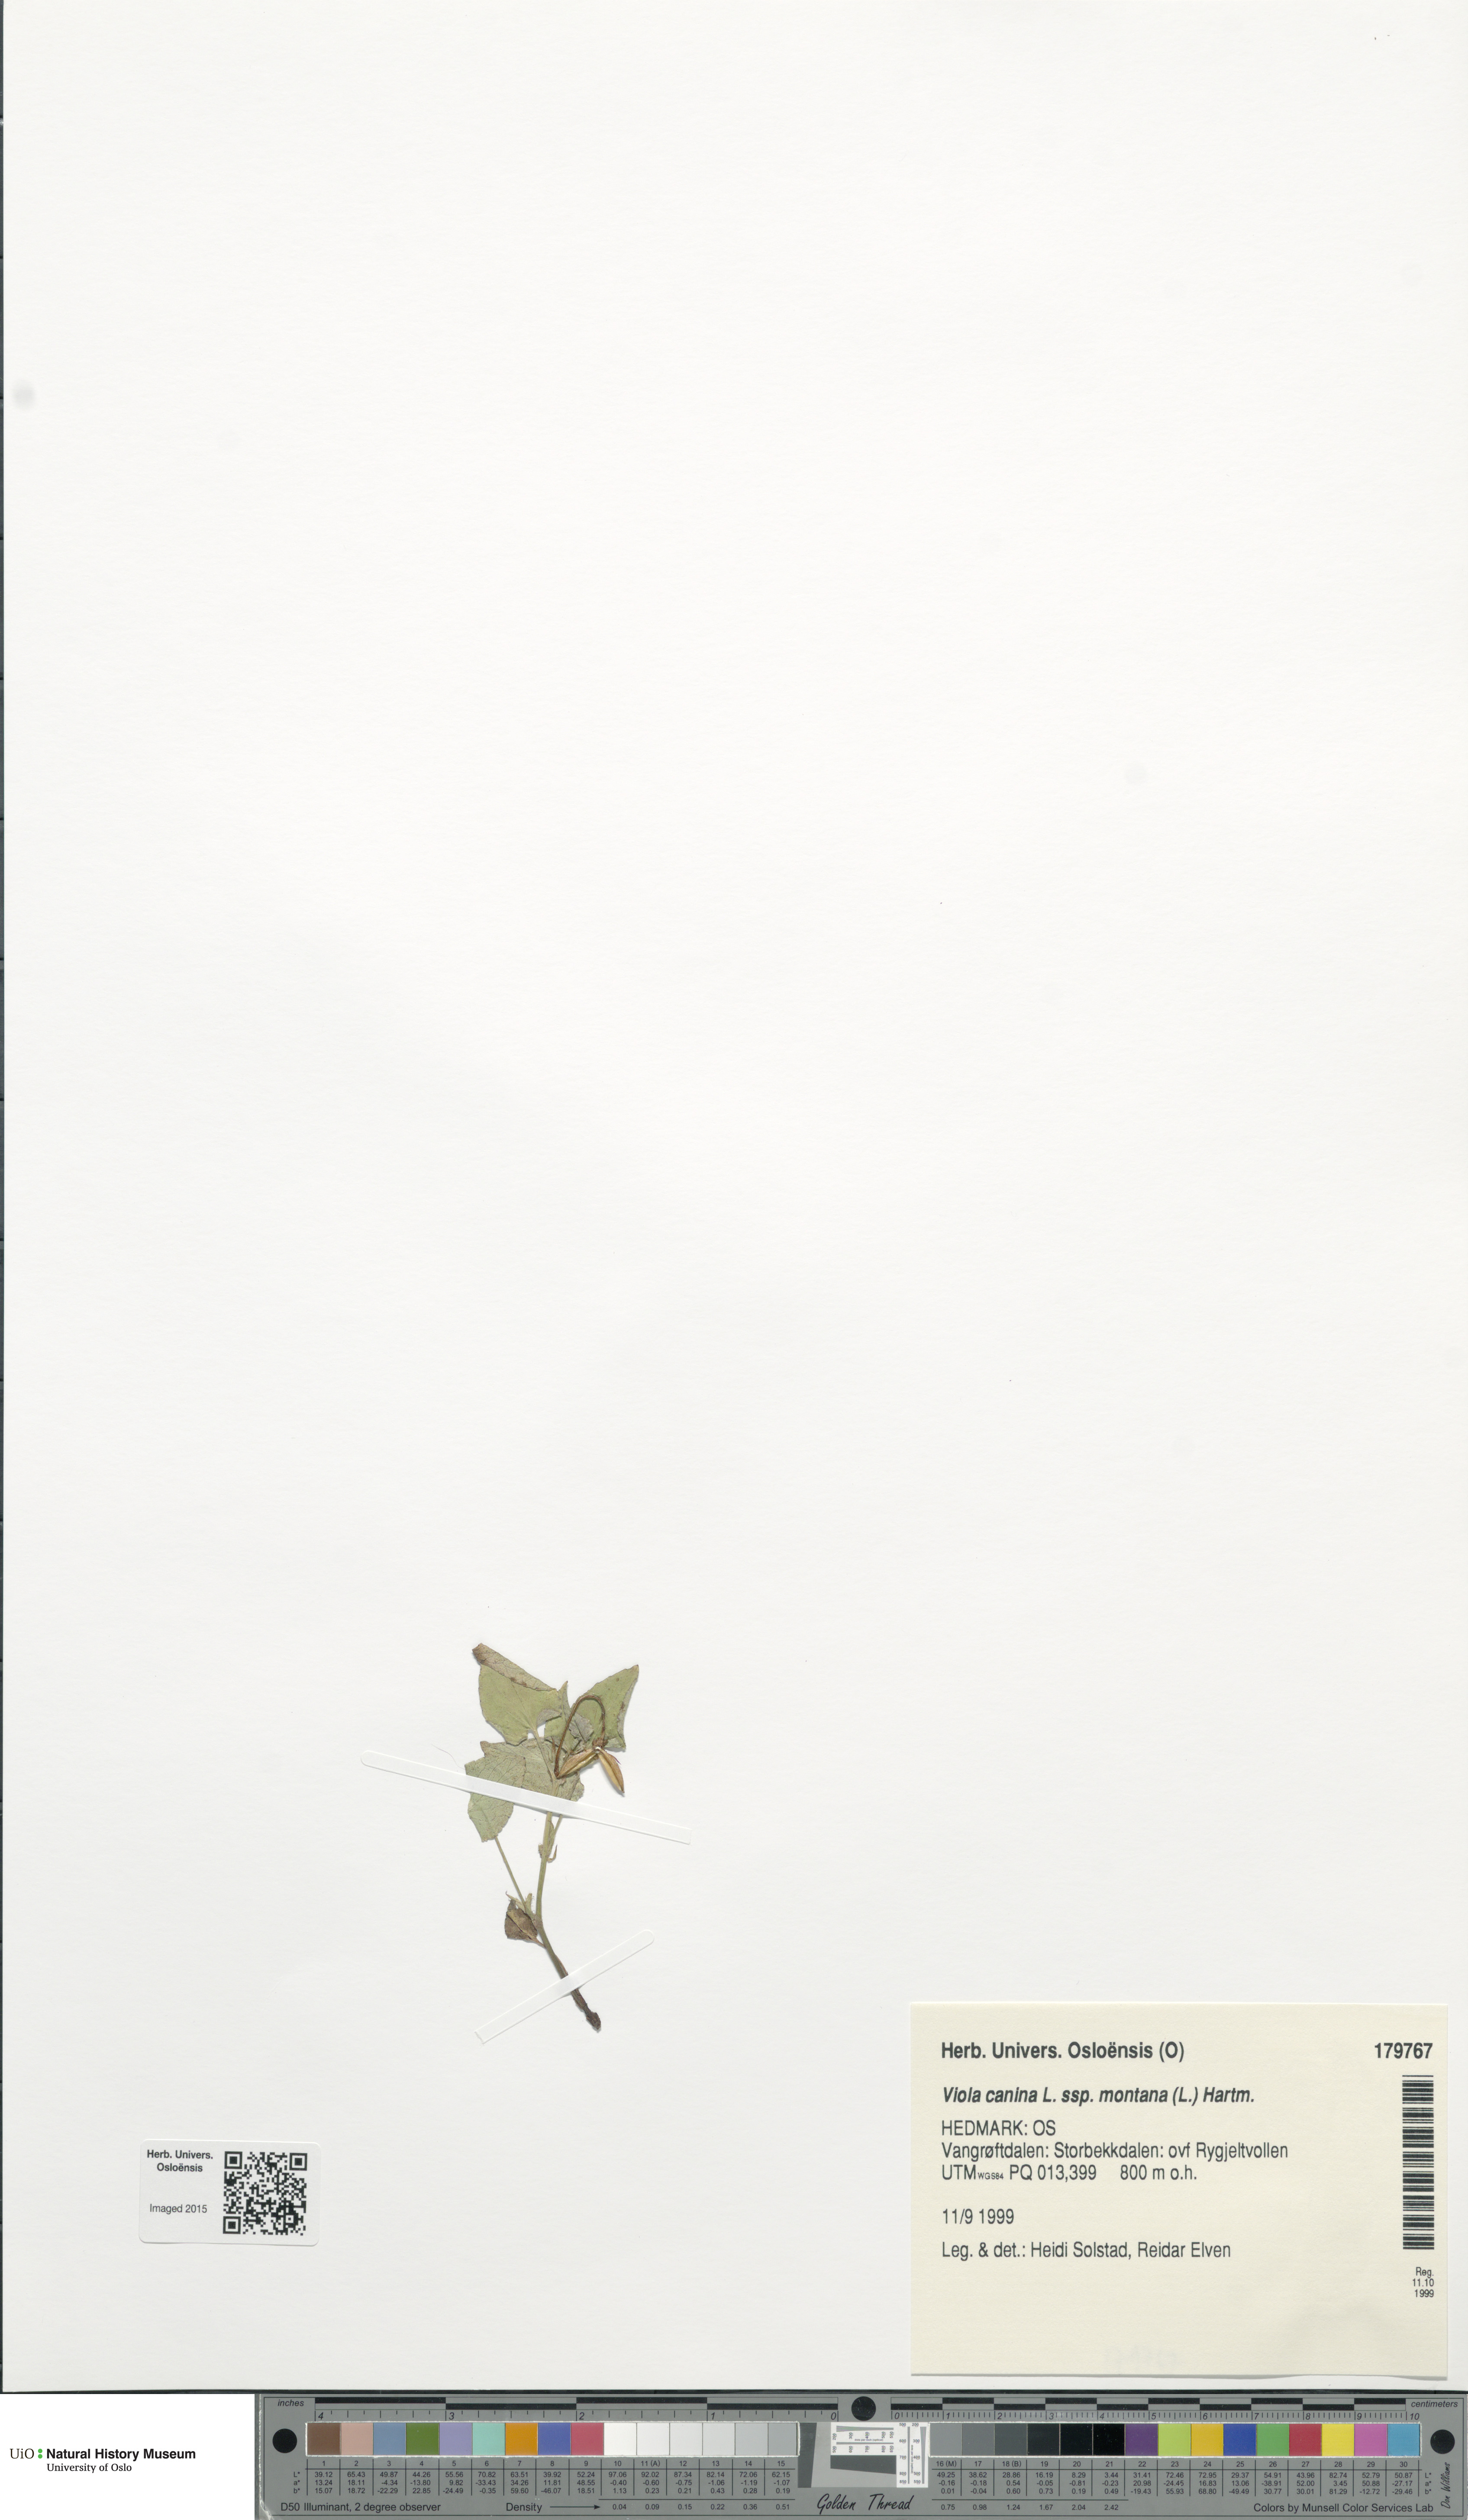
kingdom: Plantae
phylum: Tracheophyta
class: Magnoliopsida
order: Malpighiales
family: Violaceae
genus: Viola
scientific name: Viola ruppii
